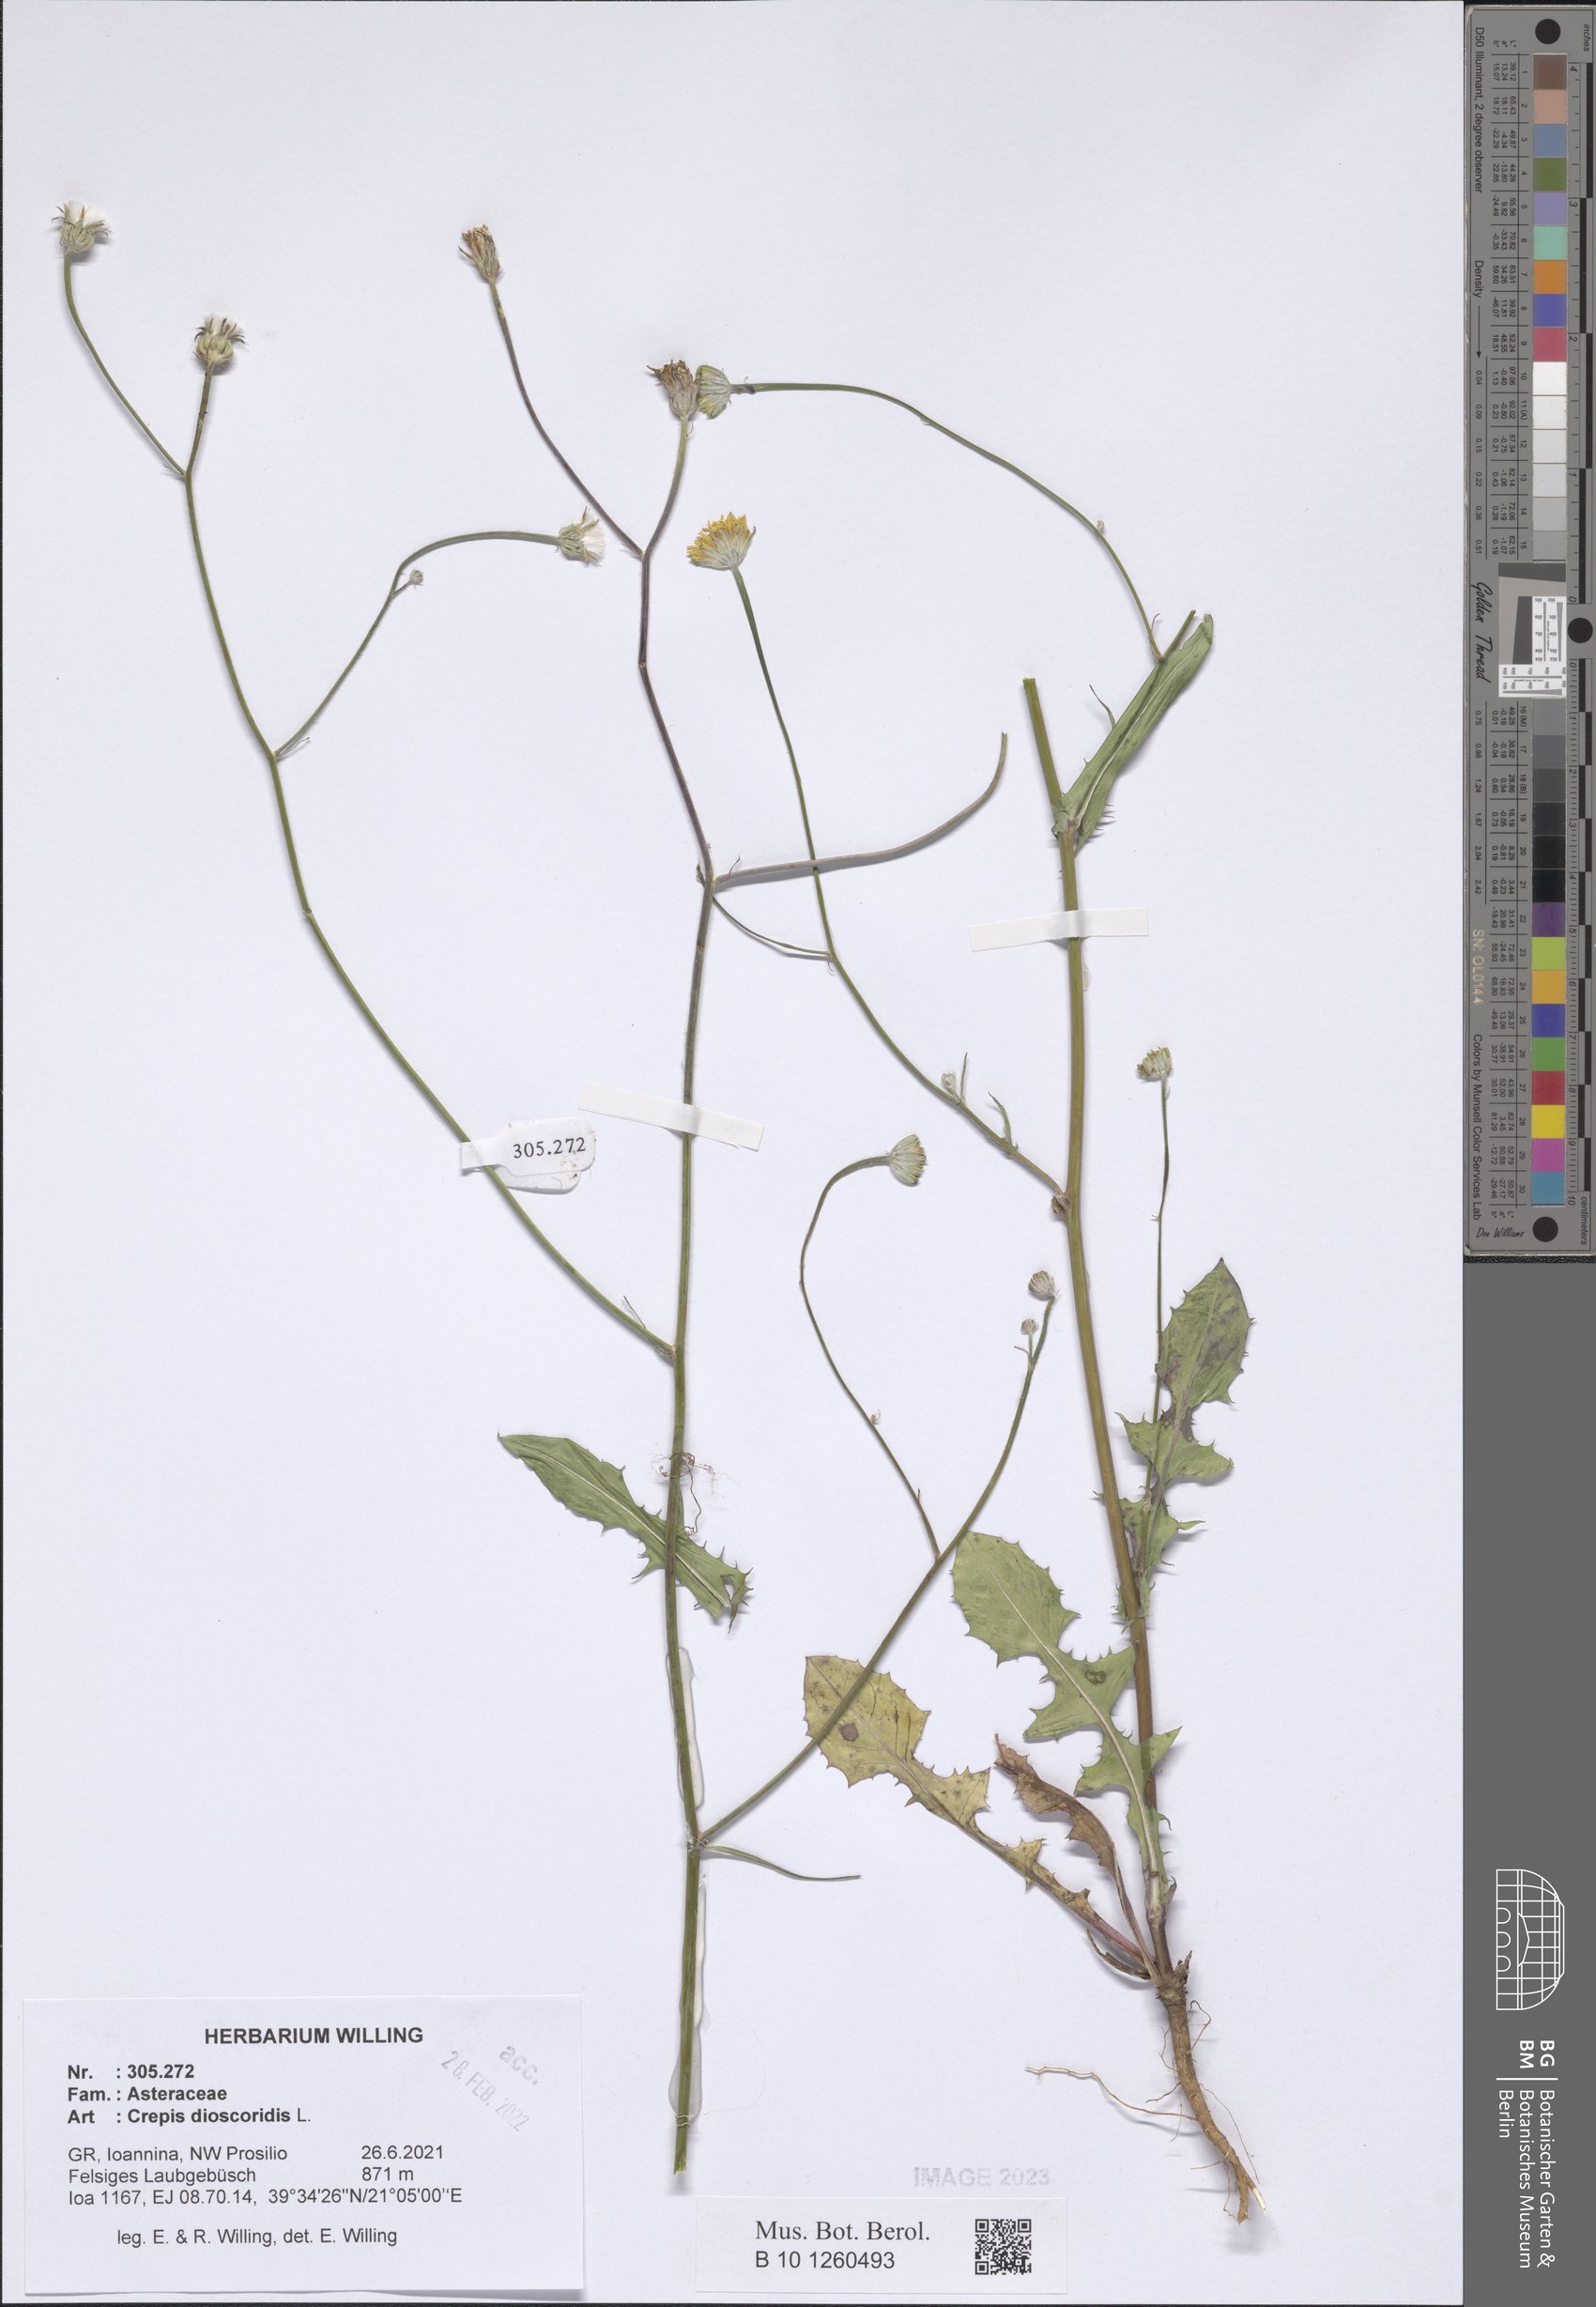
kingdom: Plantae
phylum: Tracheophyta
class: Magnoliopsida
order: Asterales
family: Asteraceae
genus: Crepis
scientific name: Crepis dioscoridis
